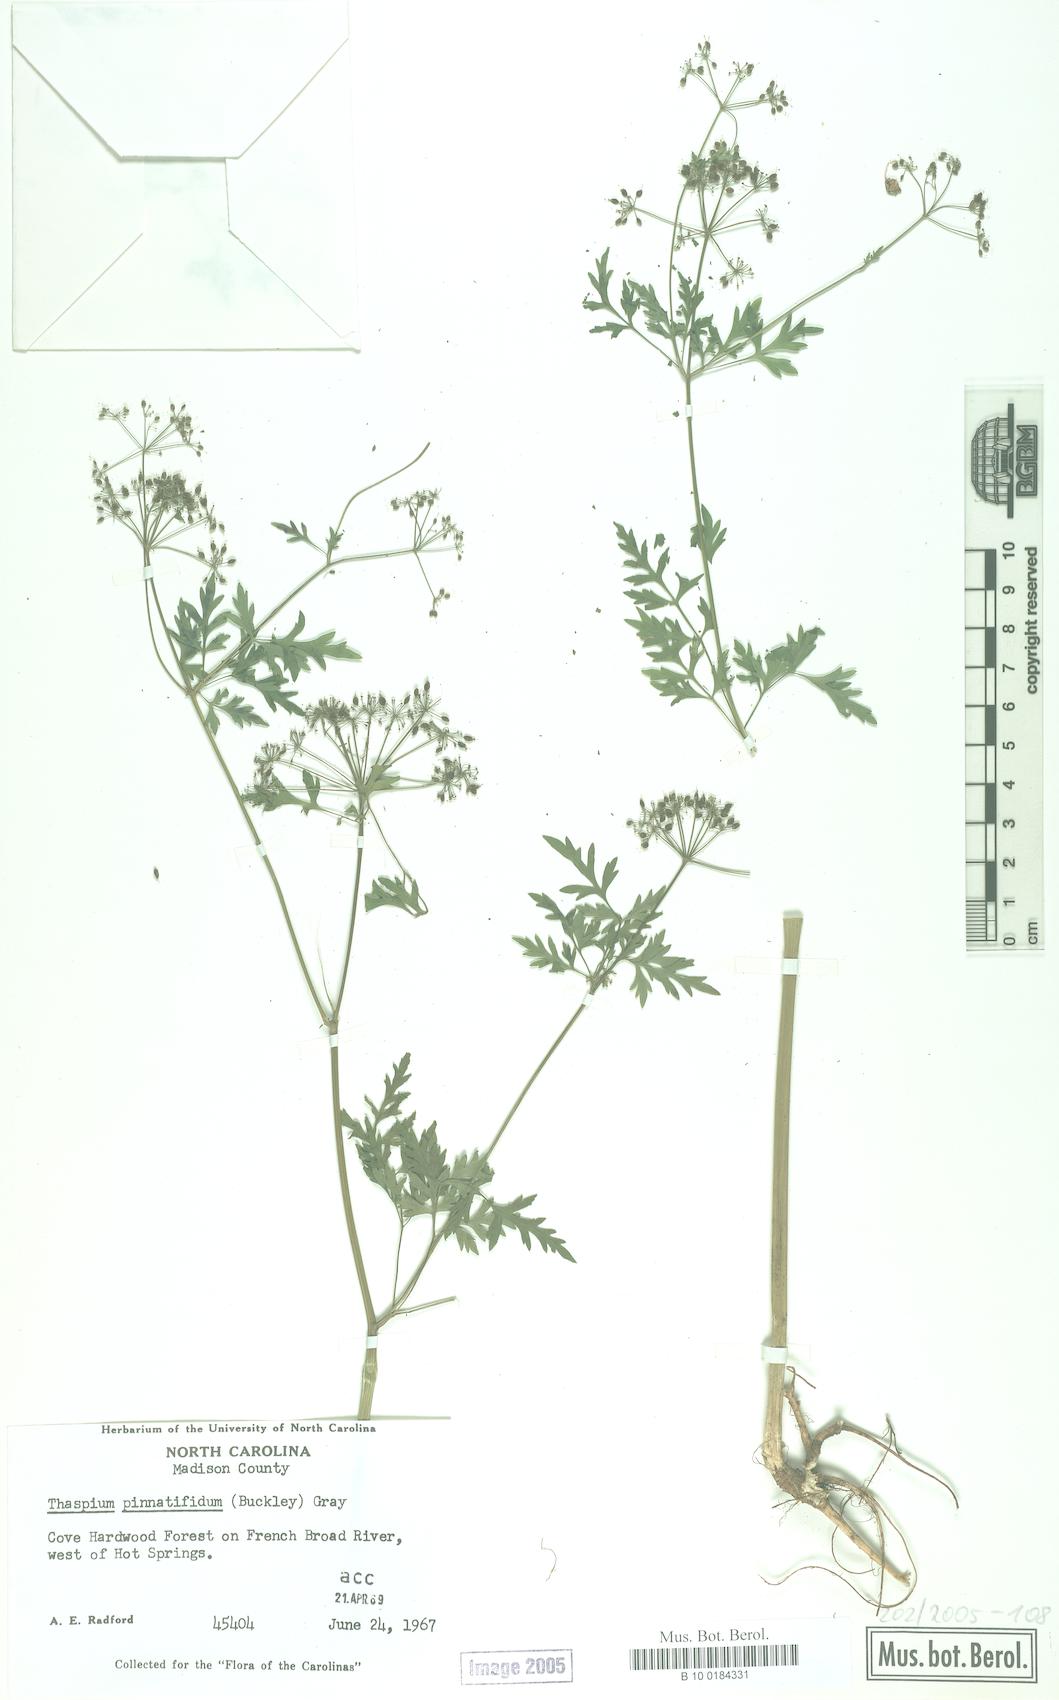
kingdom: Plantae
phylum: Tracheophyta
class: Magnoliopsida
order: Apiales
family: Apiaceae
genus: Thaspium
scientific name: Thaspium pinnatifidum
